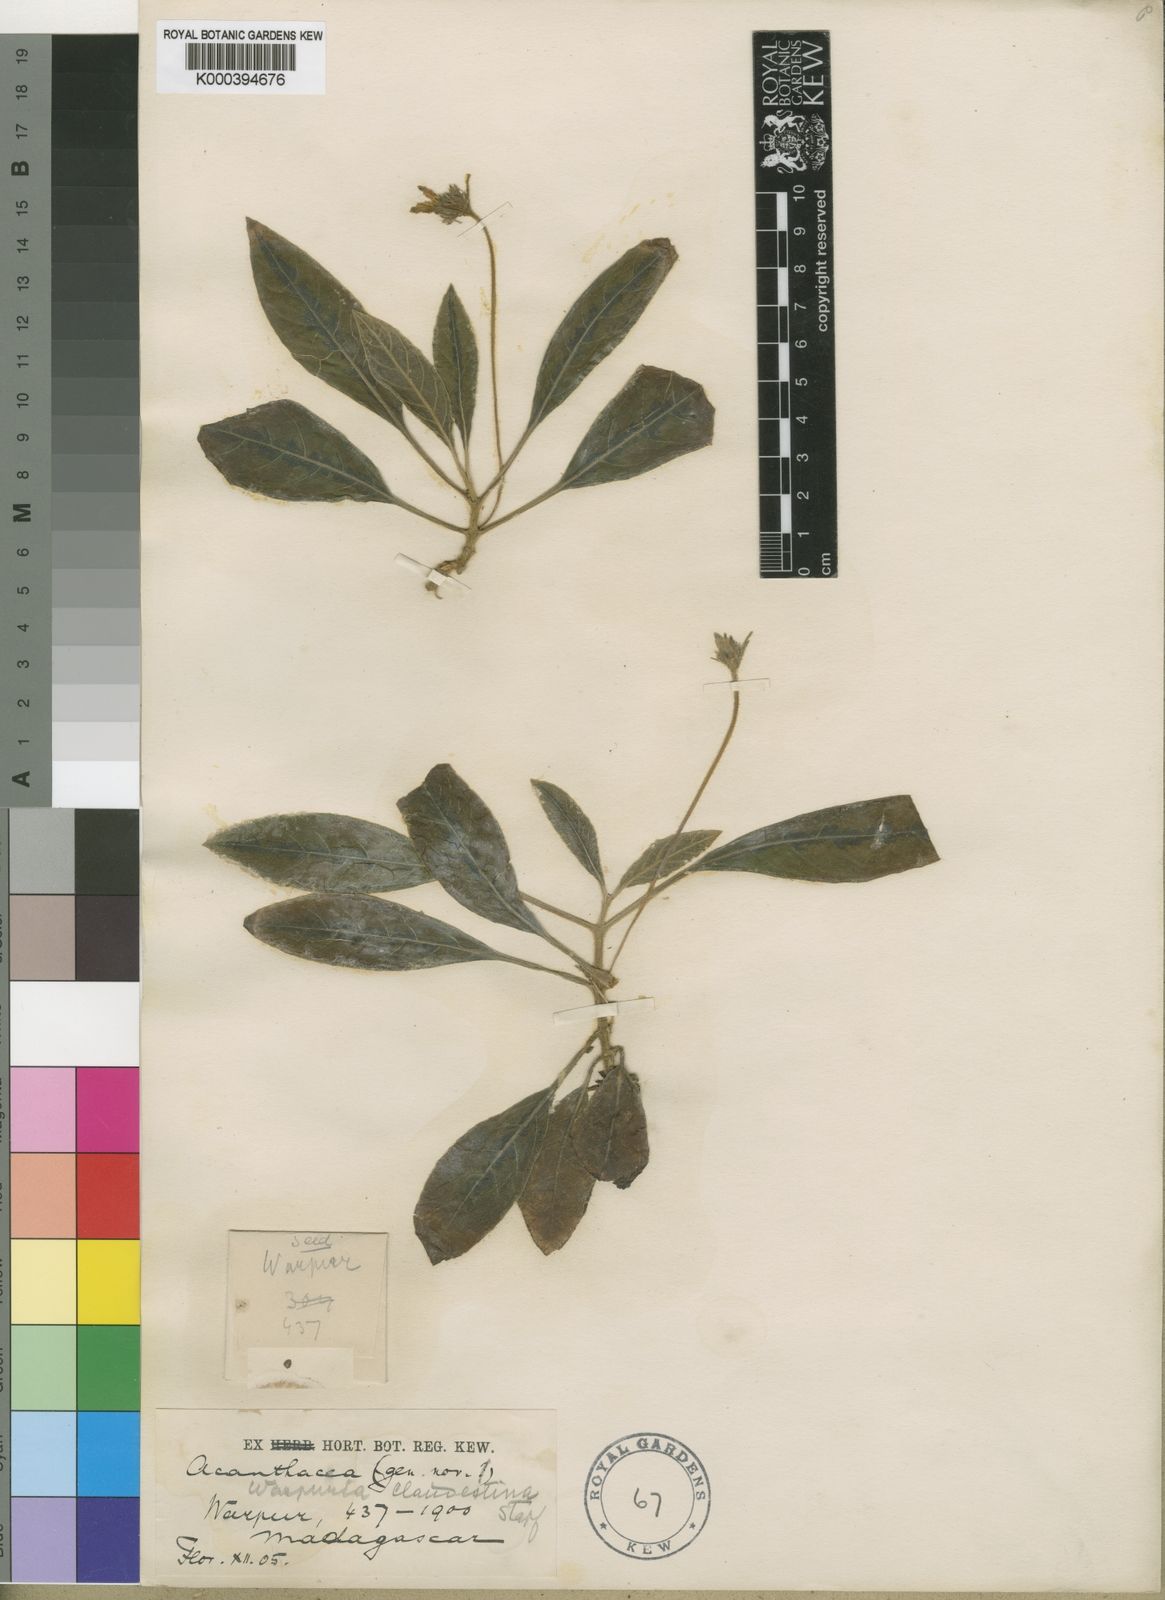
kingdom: Plantae
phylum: Tracheophyta
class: Magnoliopsida
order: Lamiales
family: Acanthaceae
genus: Podorungia
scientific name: Podorungia clandestina
